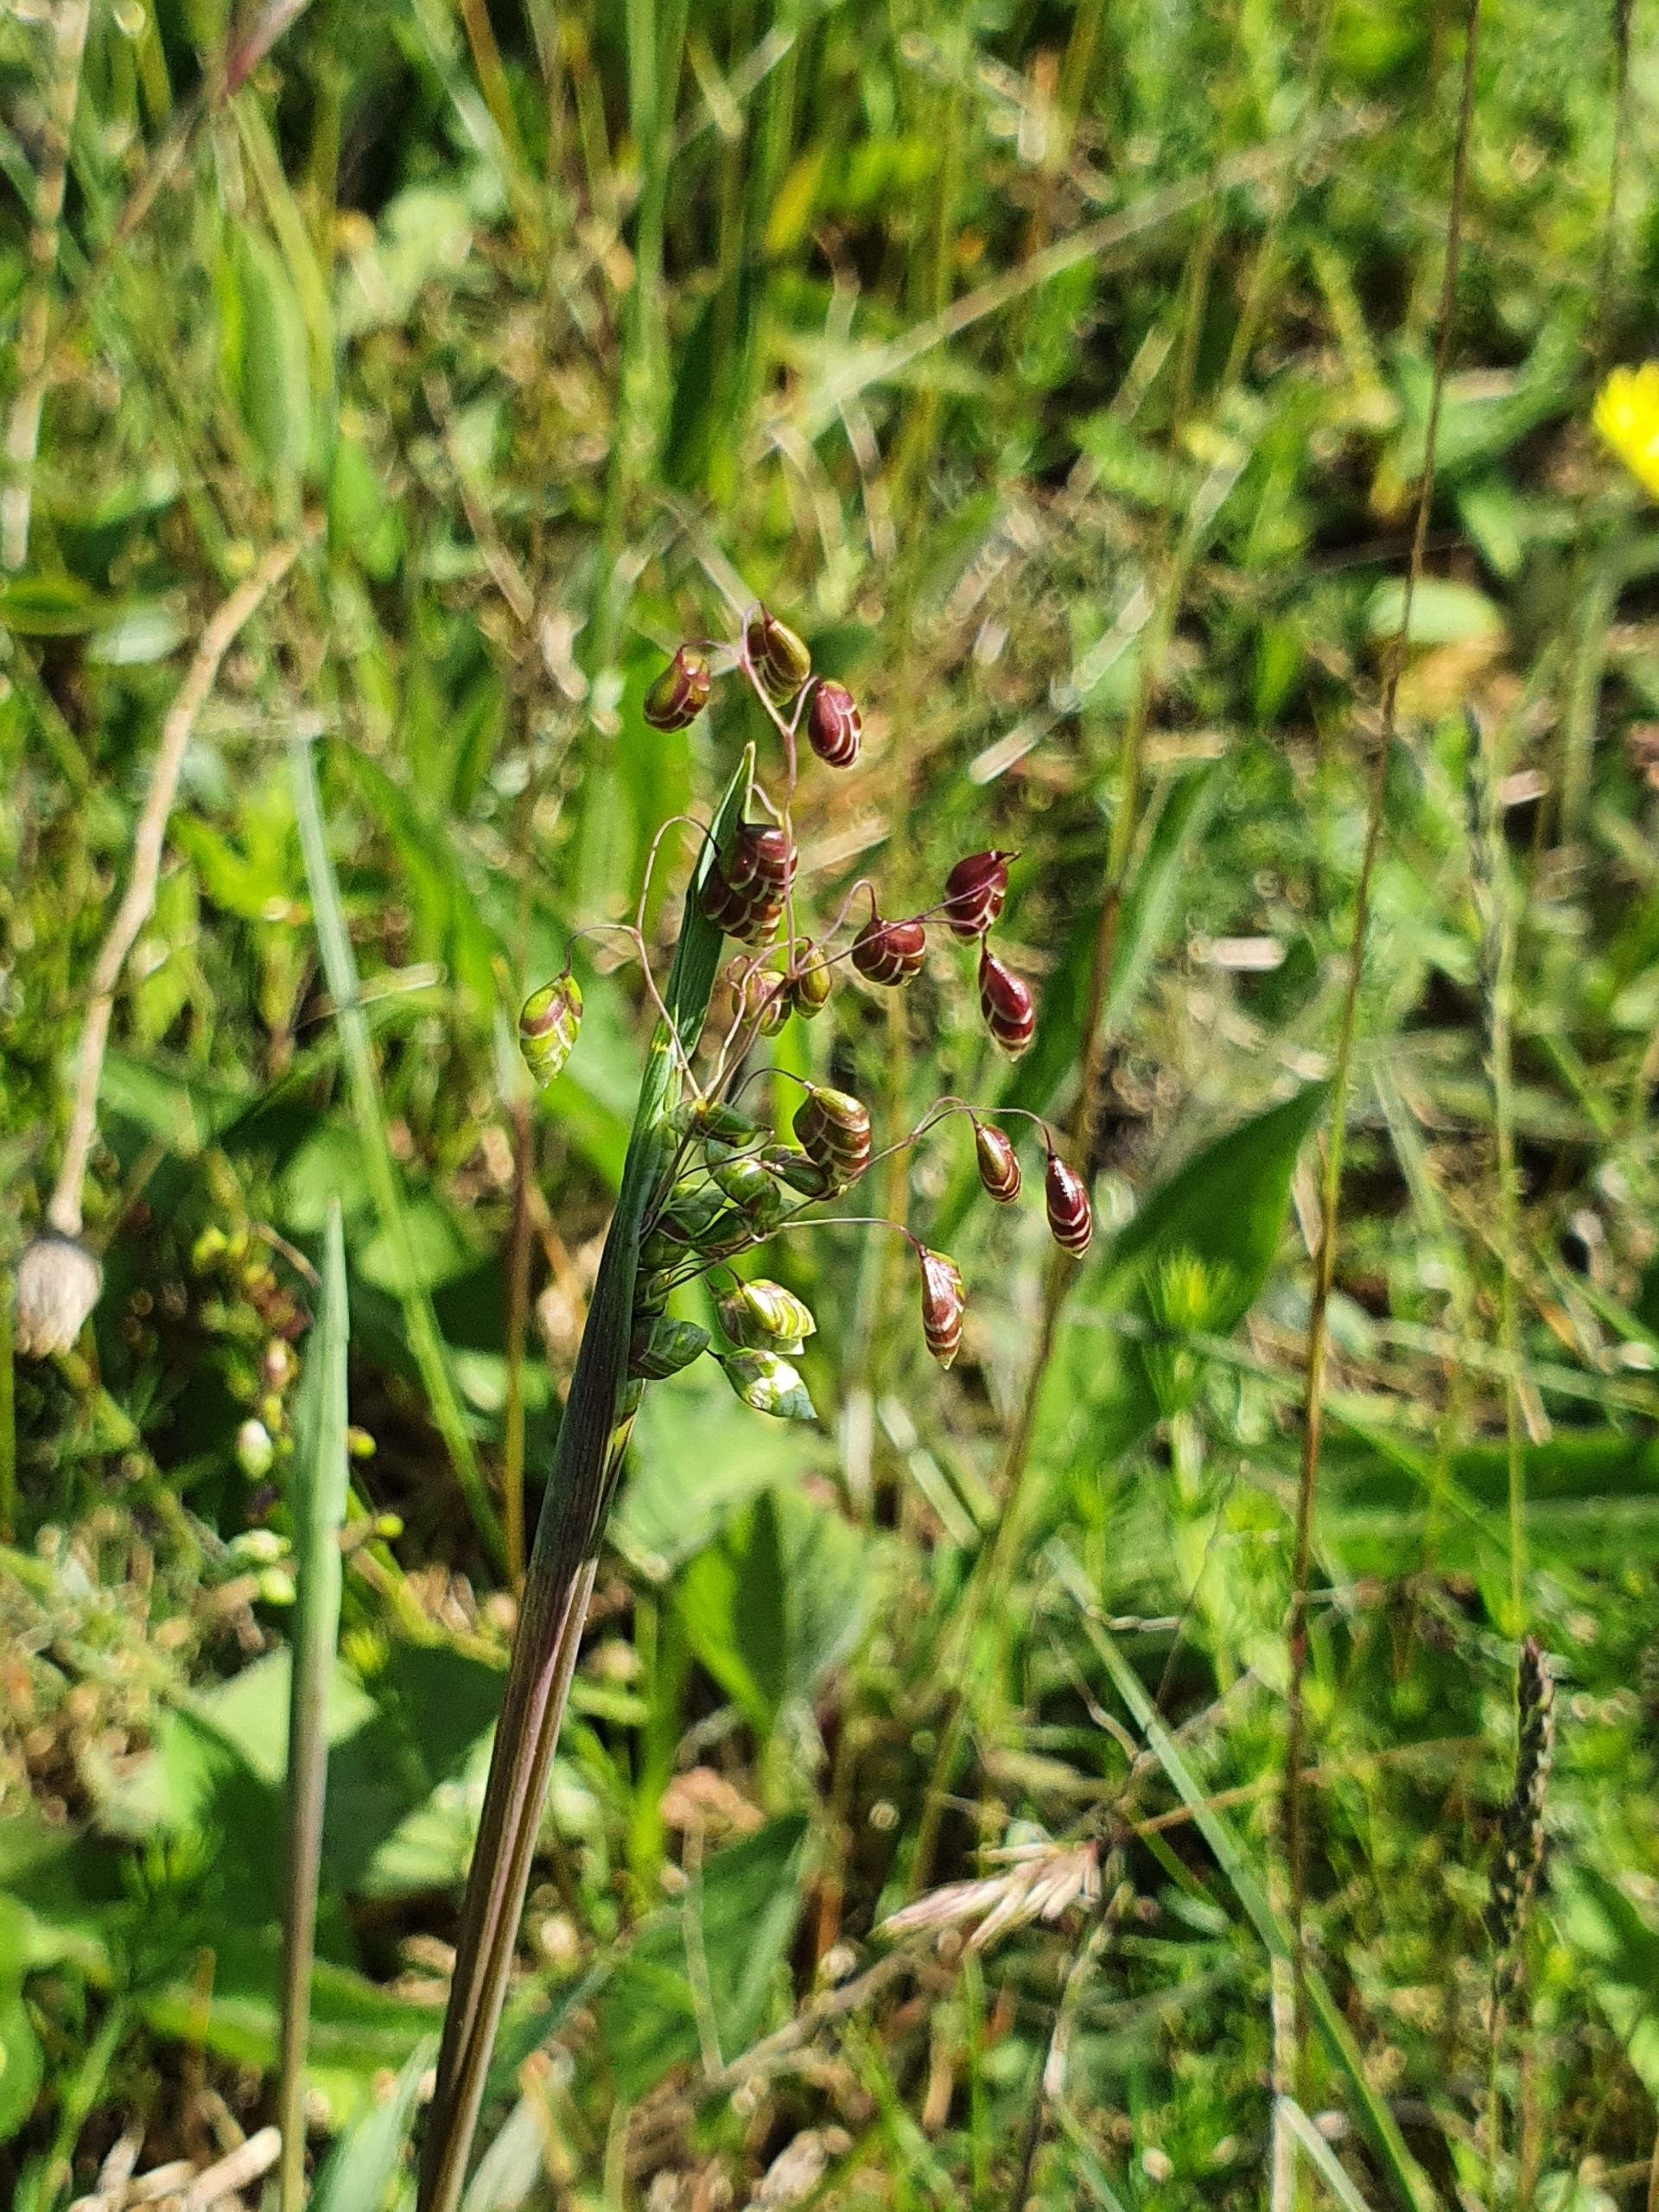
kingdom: Plantae
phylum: Tracheophyta
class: Liliopsida
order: Poales
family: Poaceae
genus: Briza
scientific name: Briza media
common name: Hjertegræs
